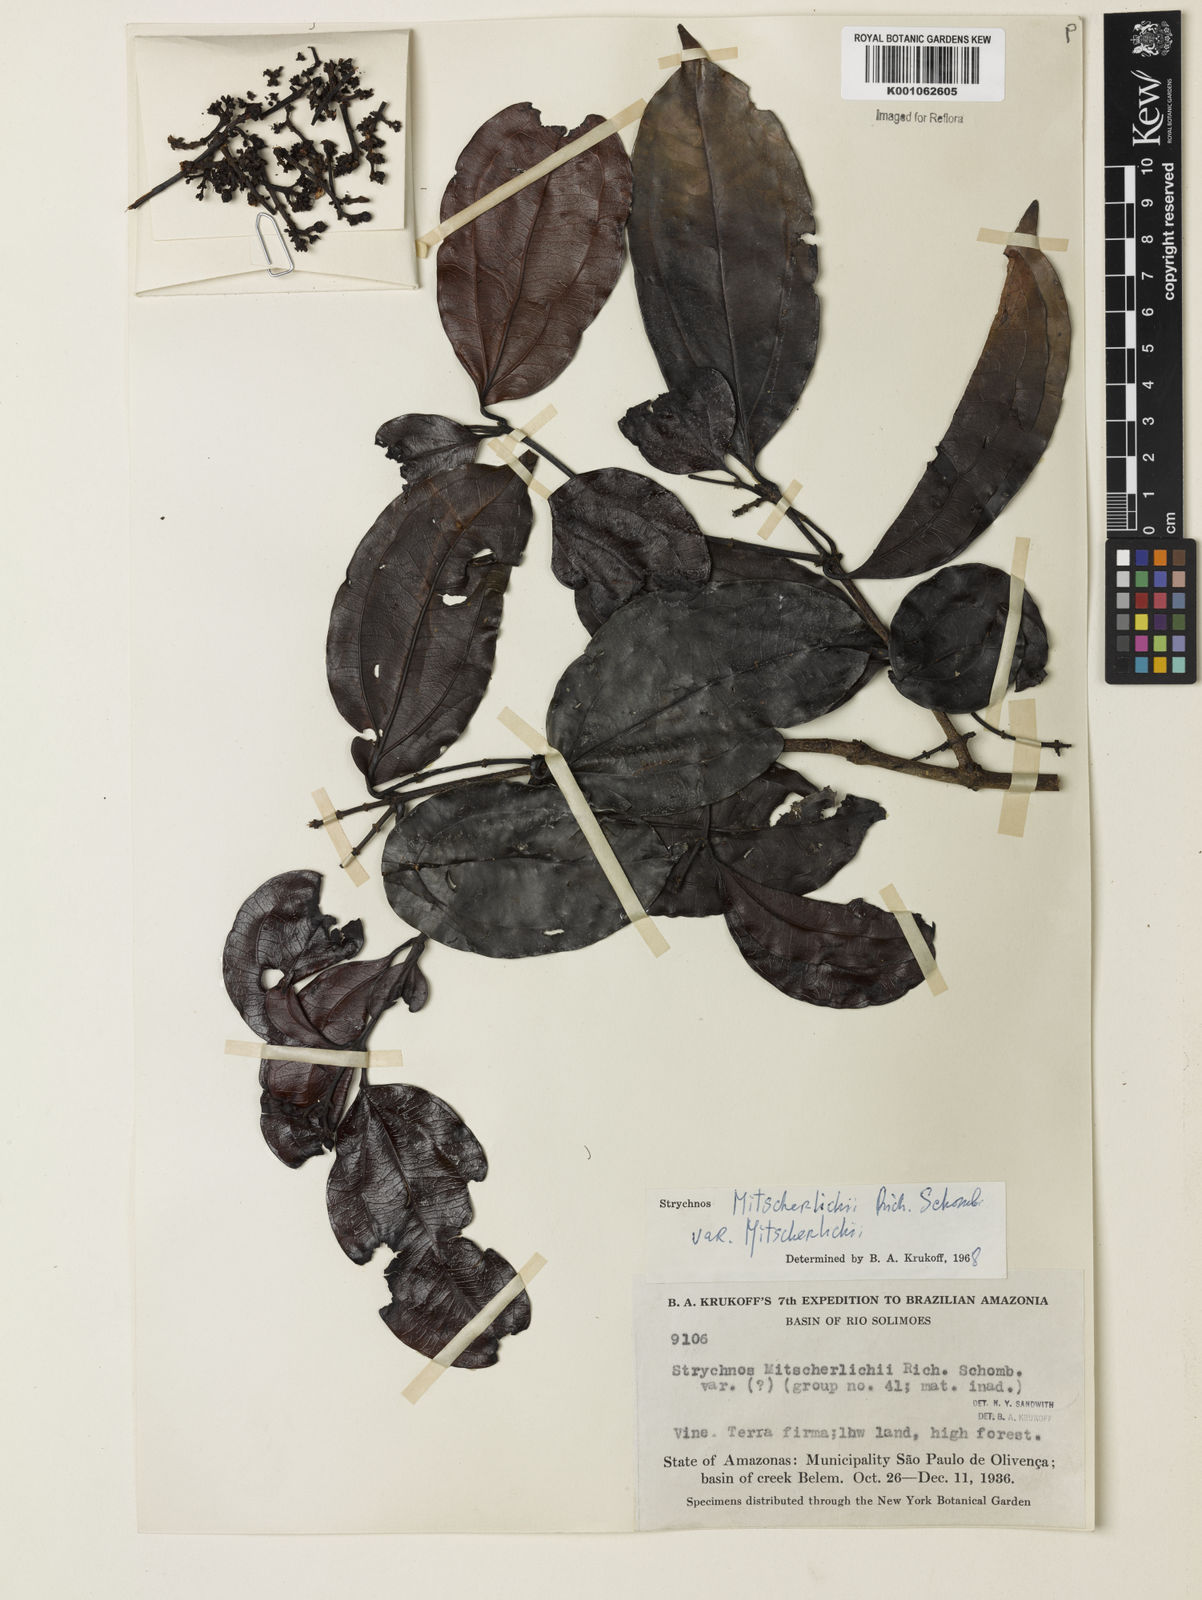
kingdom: Plantae
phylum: Tracheophyta
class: Magnoliopsida
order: Gentianales
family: Loganiaceae
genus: Strychnos
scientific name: Strychnos mitscherlichii
